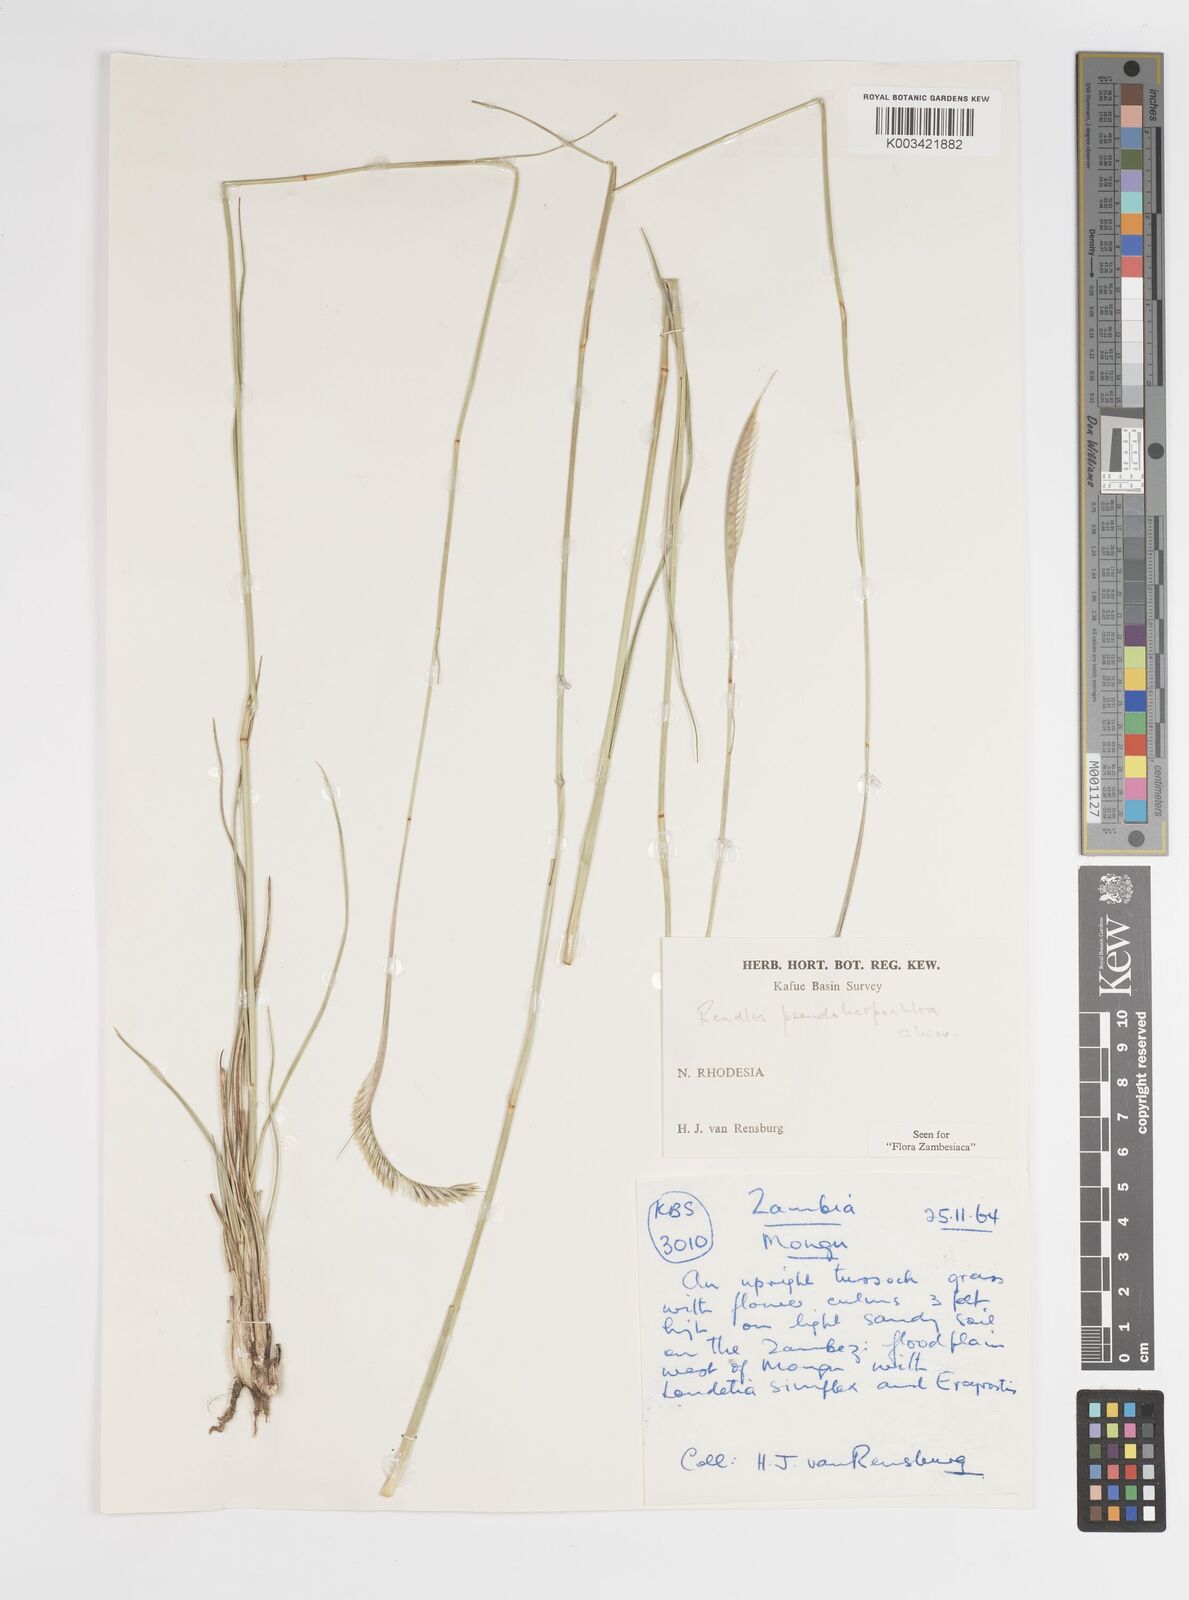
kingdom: Plantae
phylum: Tracheophyta
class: Liliopsida
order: Poales
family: Poaceae
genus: Harpochloa
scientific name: Harpochloa pseudoharpechloa
